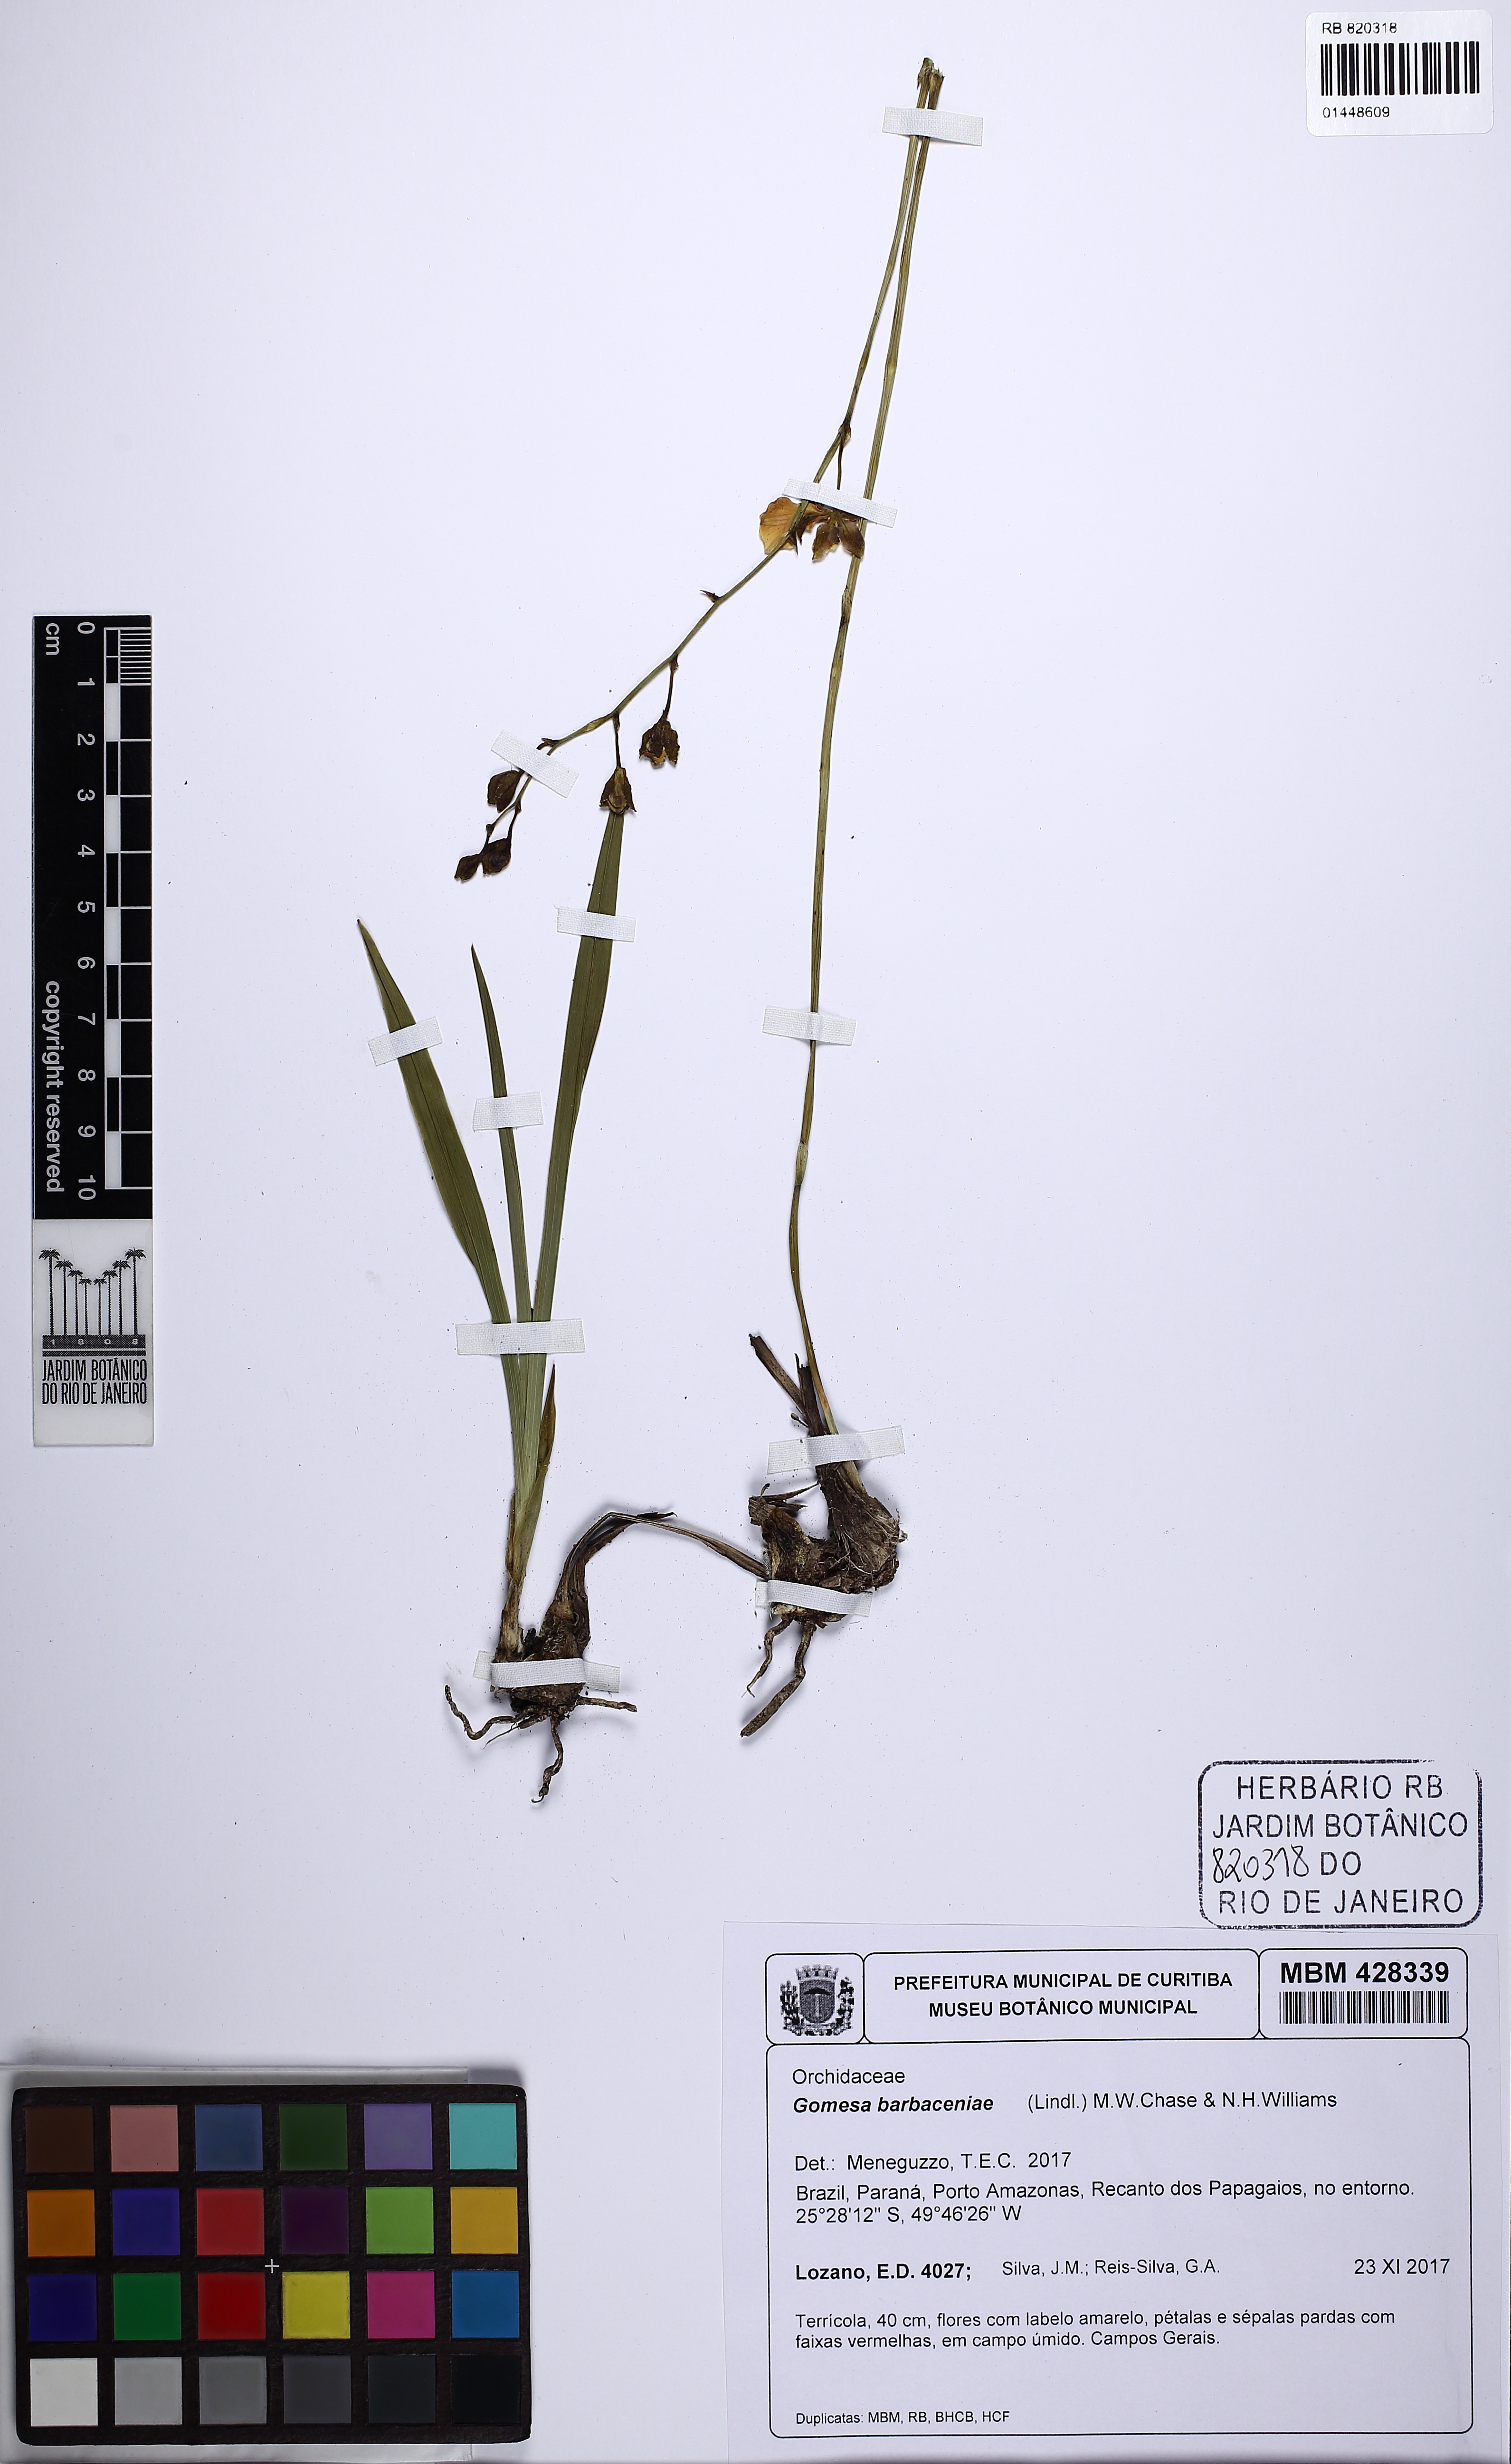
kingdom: Plantae
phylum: Tracheophyta
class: Liliopsida
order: Asparagales
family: Orchidaceae
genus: Gomesa
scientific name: Gomesa barbaceniae
